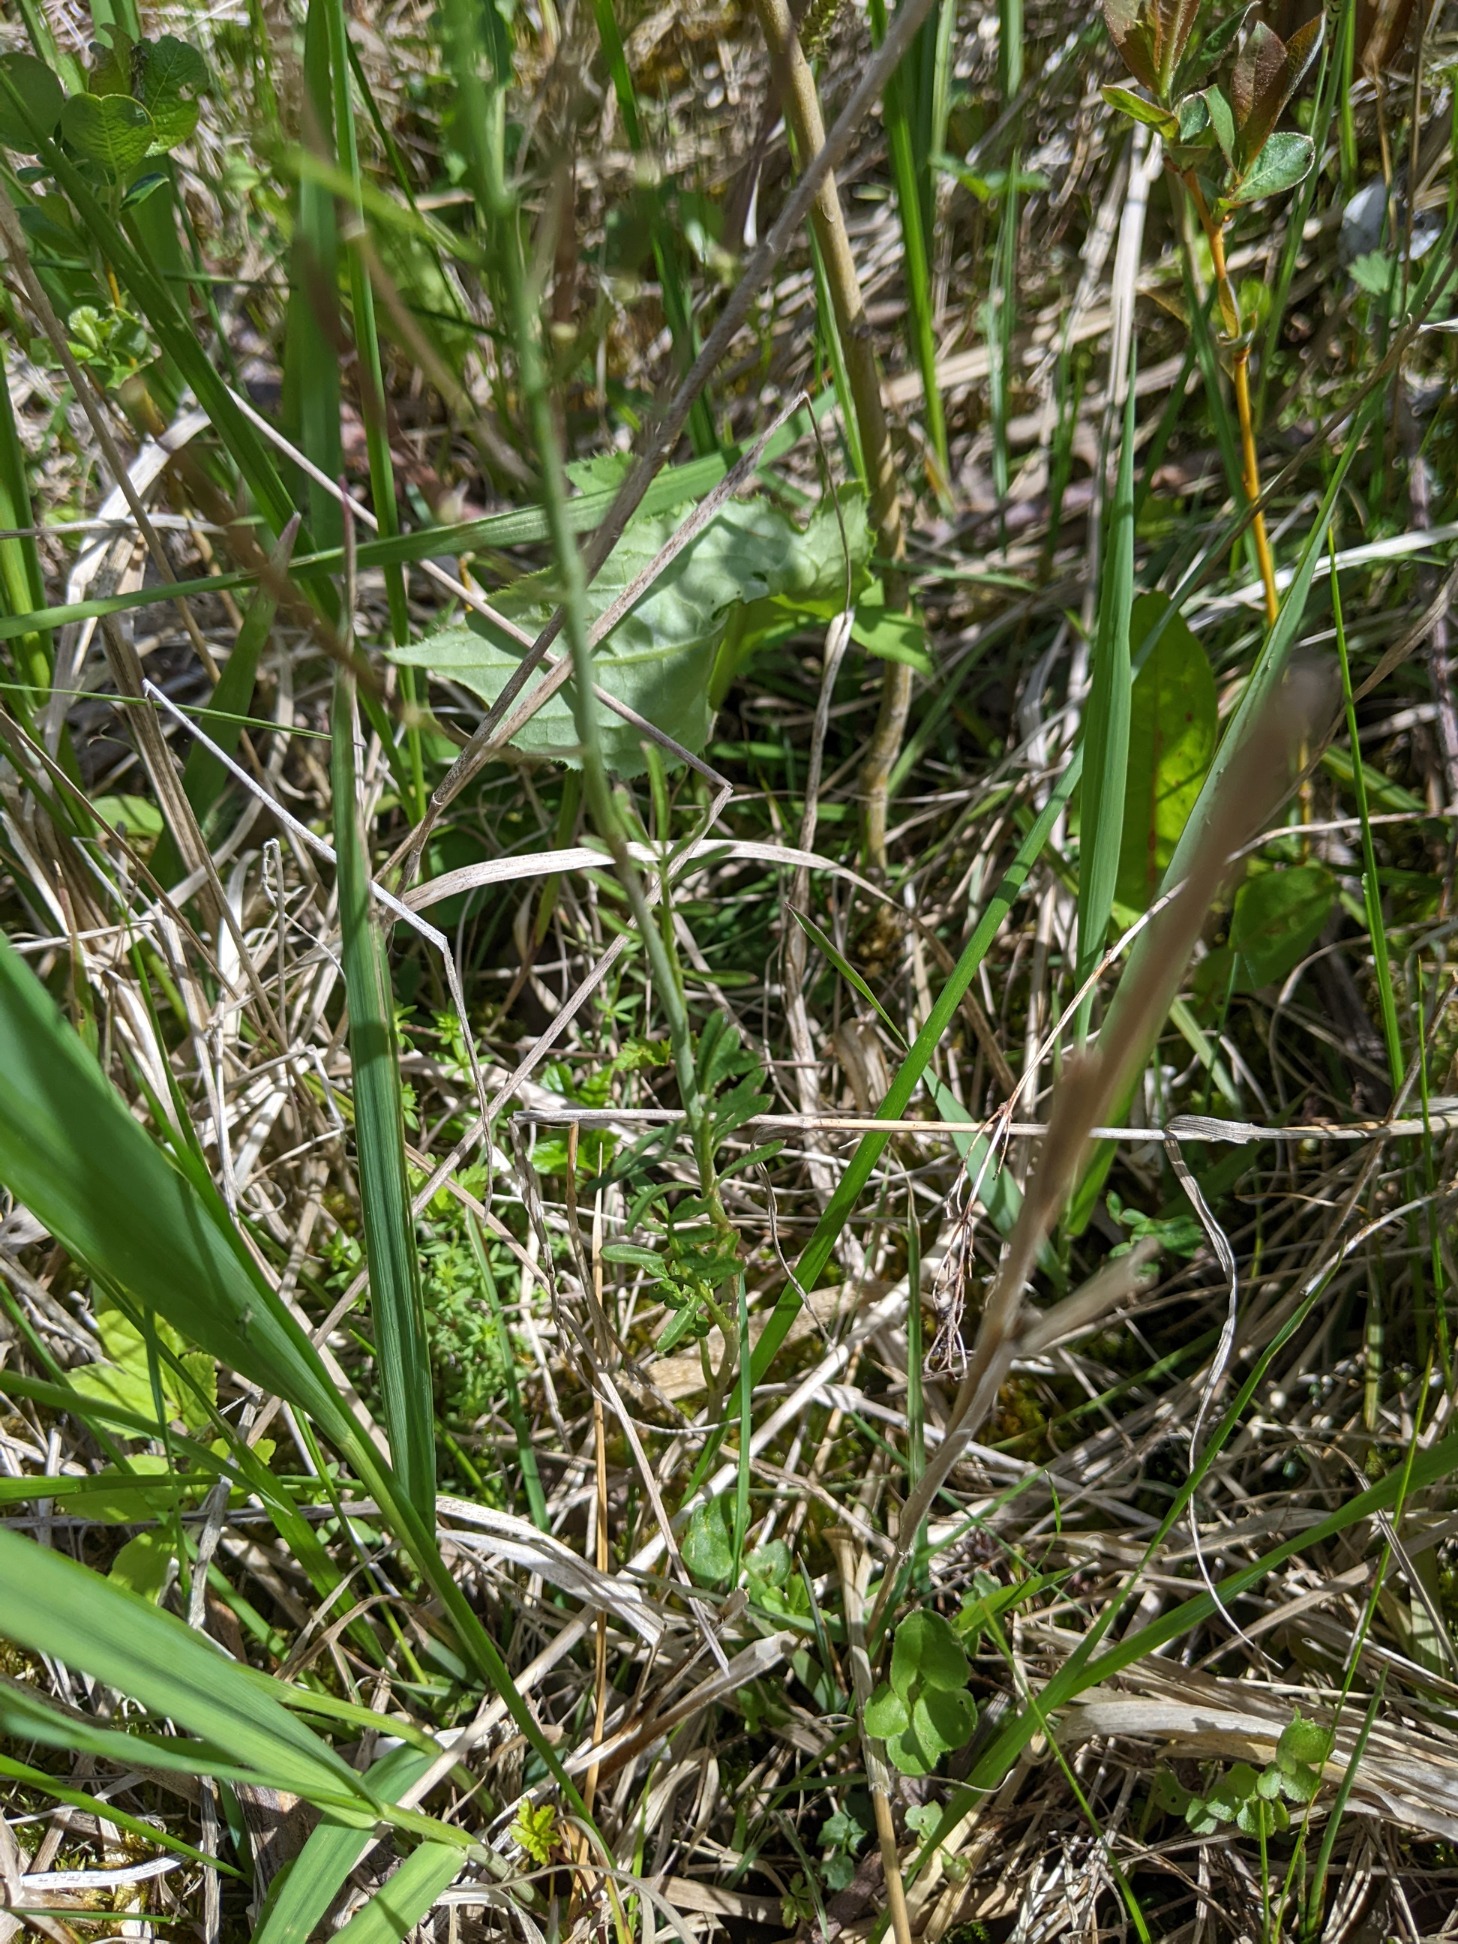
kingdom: Plantae
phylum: Tracheophyta
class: Magnoliopsida
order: Brassicales
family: Brassicaceae
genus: Cardamine
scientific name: Cardamine pratensis
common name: Engkarse
